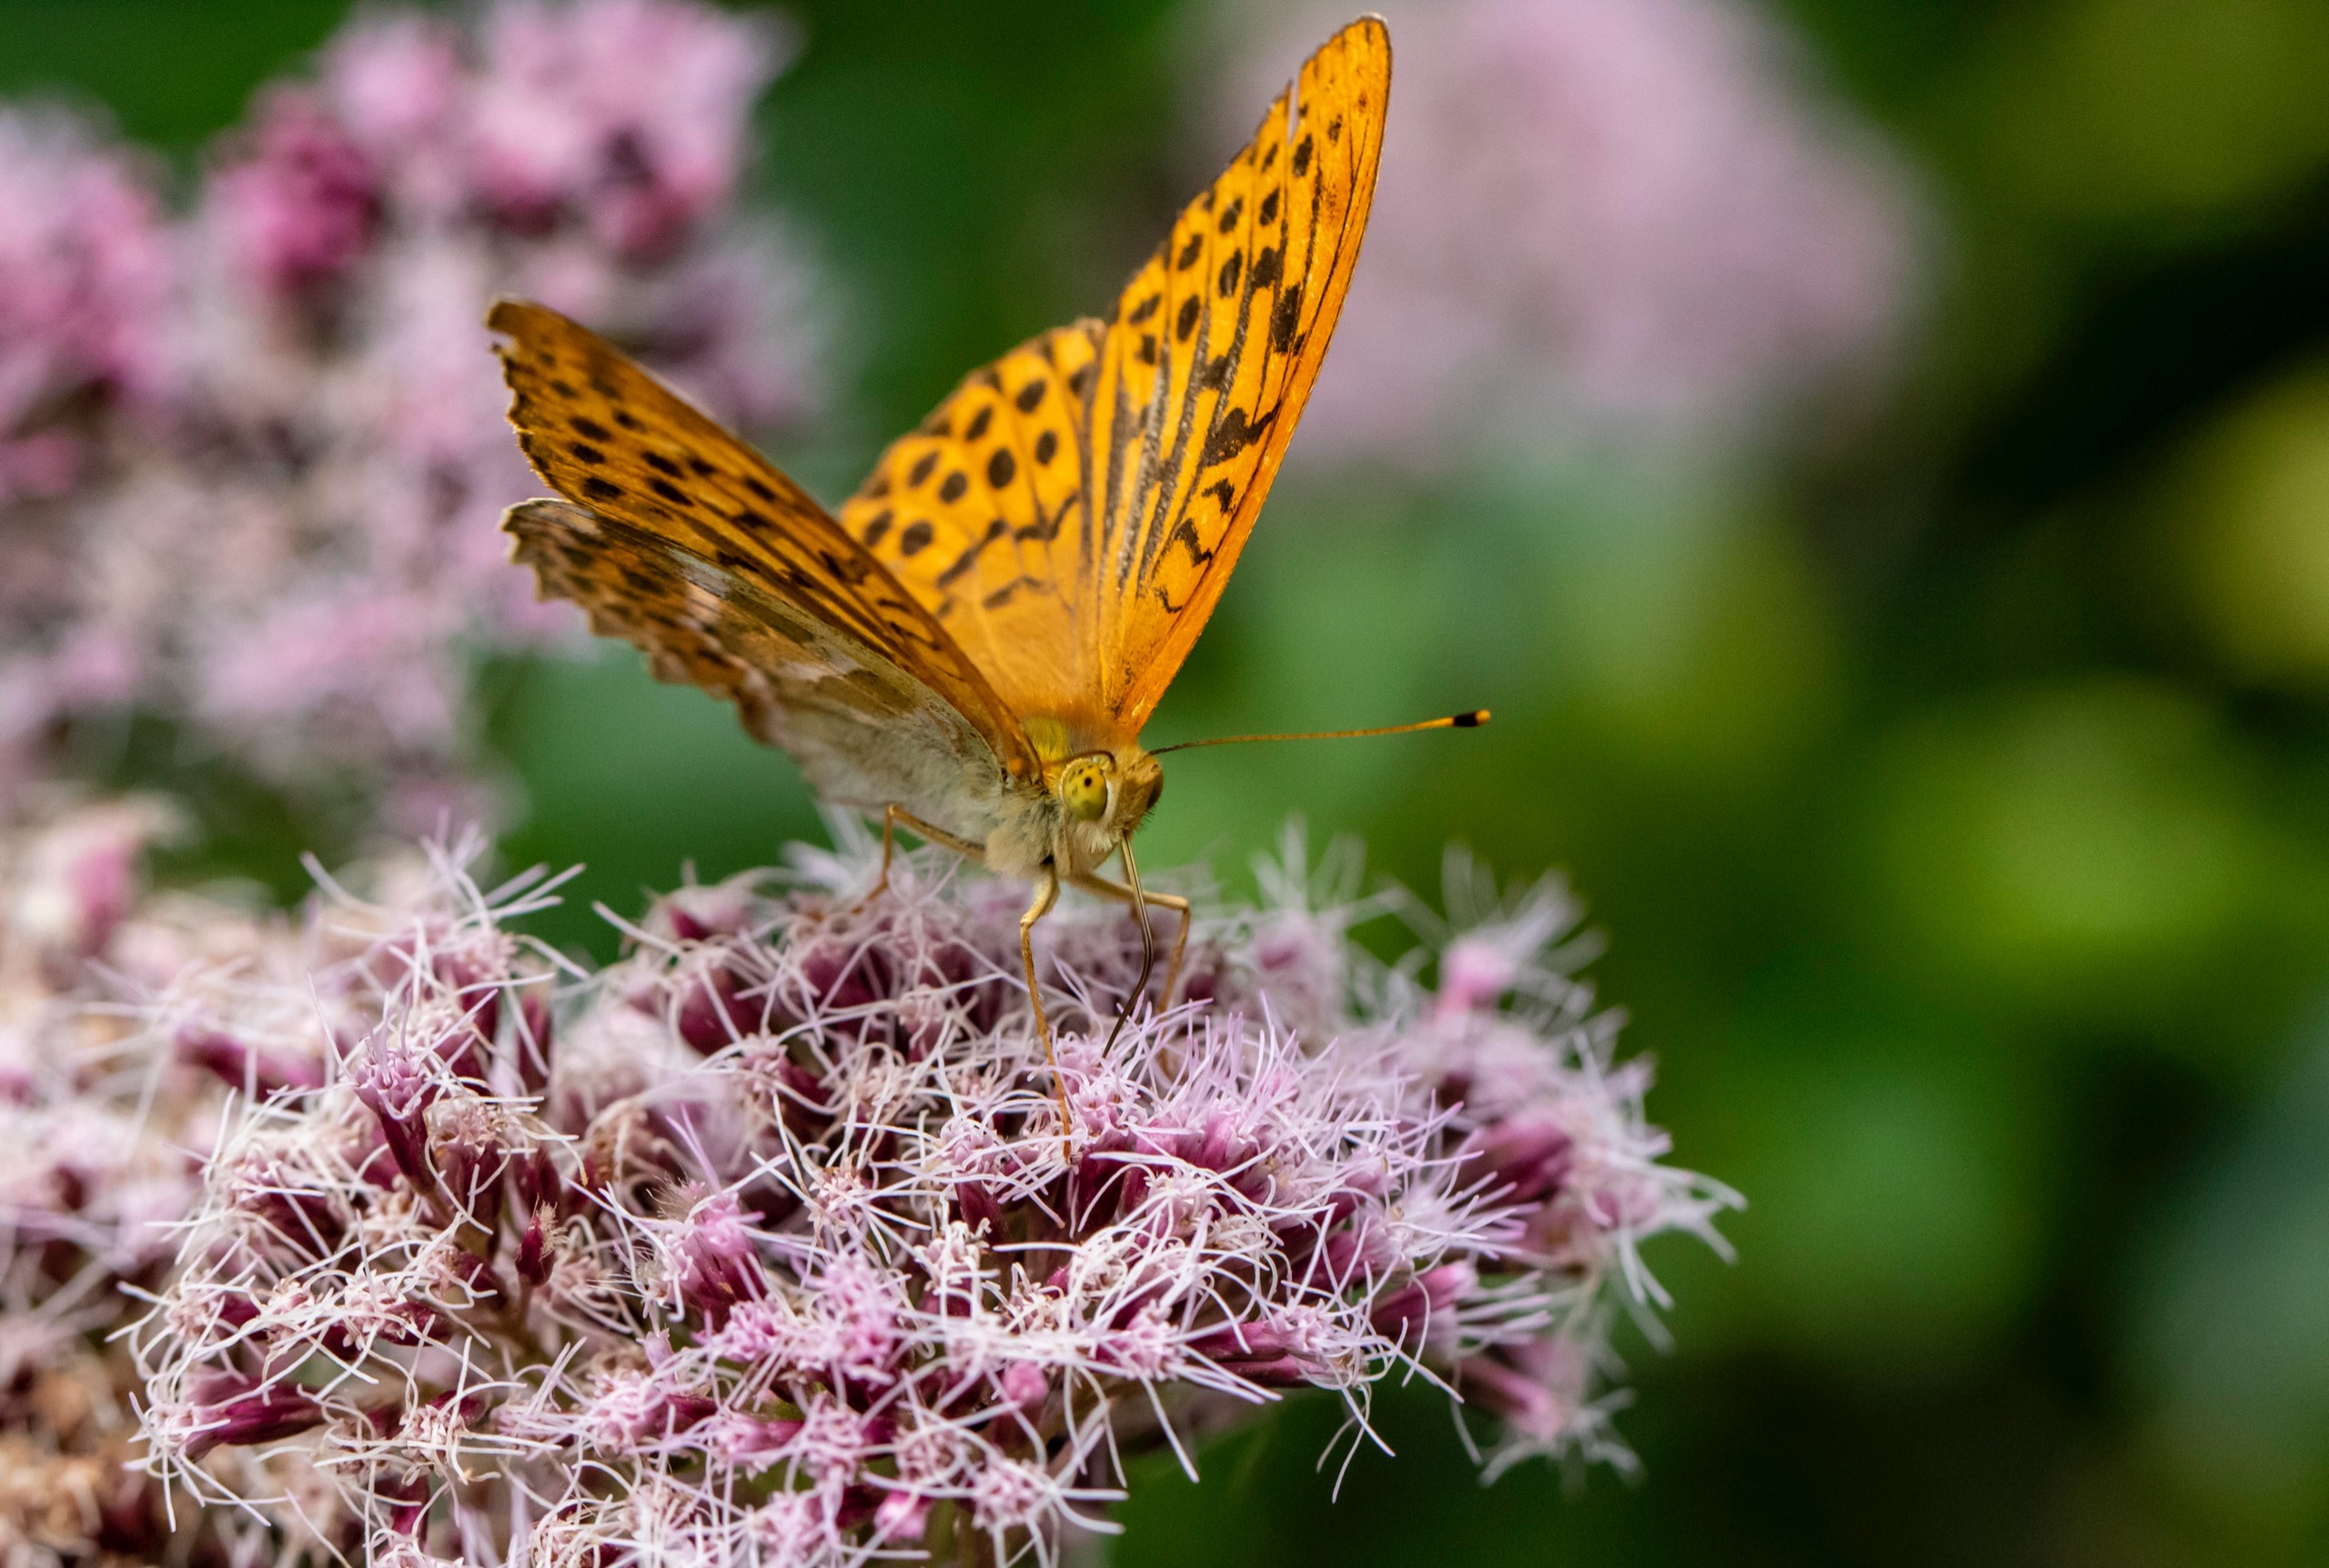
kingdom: Animalia
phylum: Arthropoda
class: Insecta
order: Lepidoptera
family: Nymphalidae
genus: Argynnis
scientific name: Argynnis paphia
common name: Kejserkåbe
